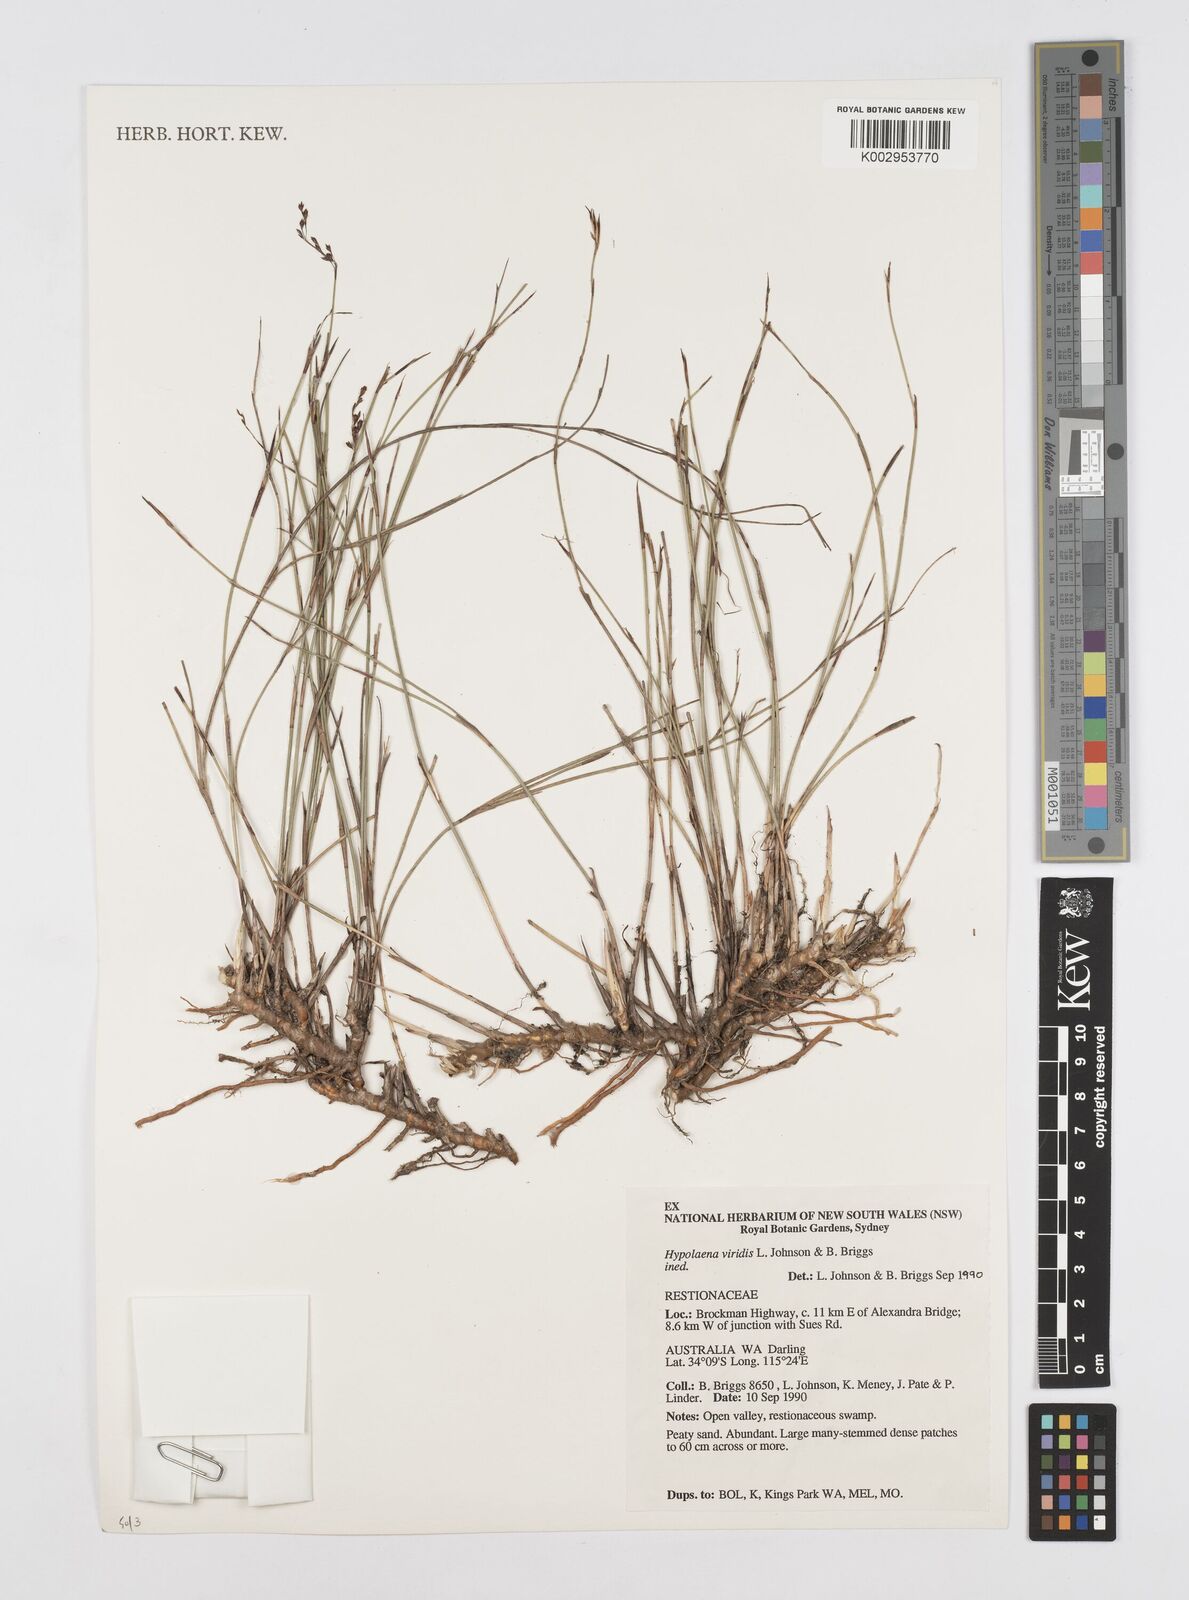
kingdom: Plantae
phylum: Tracheophyta
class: Liliopsida
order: Poales
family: Restionaceae
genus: Hypolaena
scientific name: Hypolaena viridis
